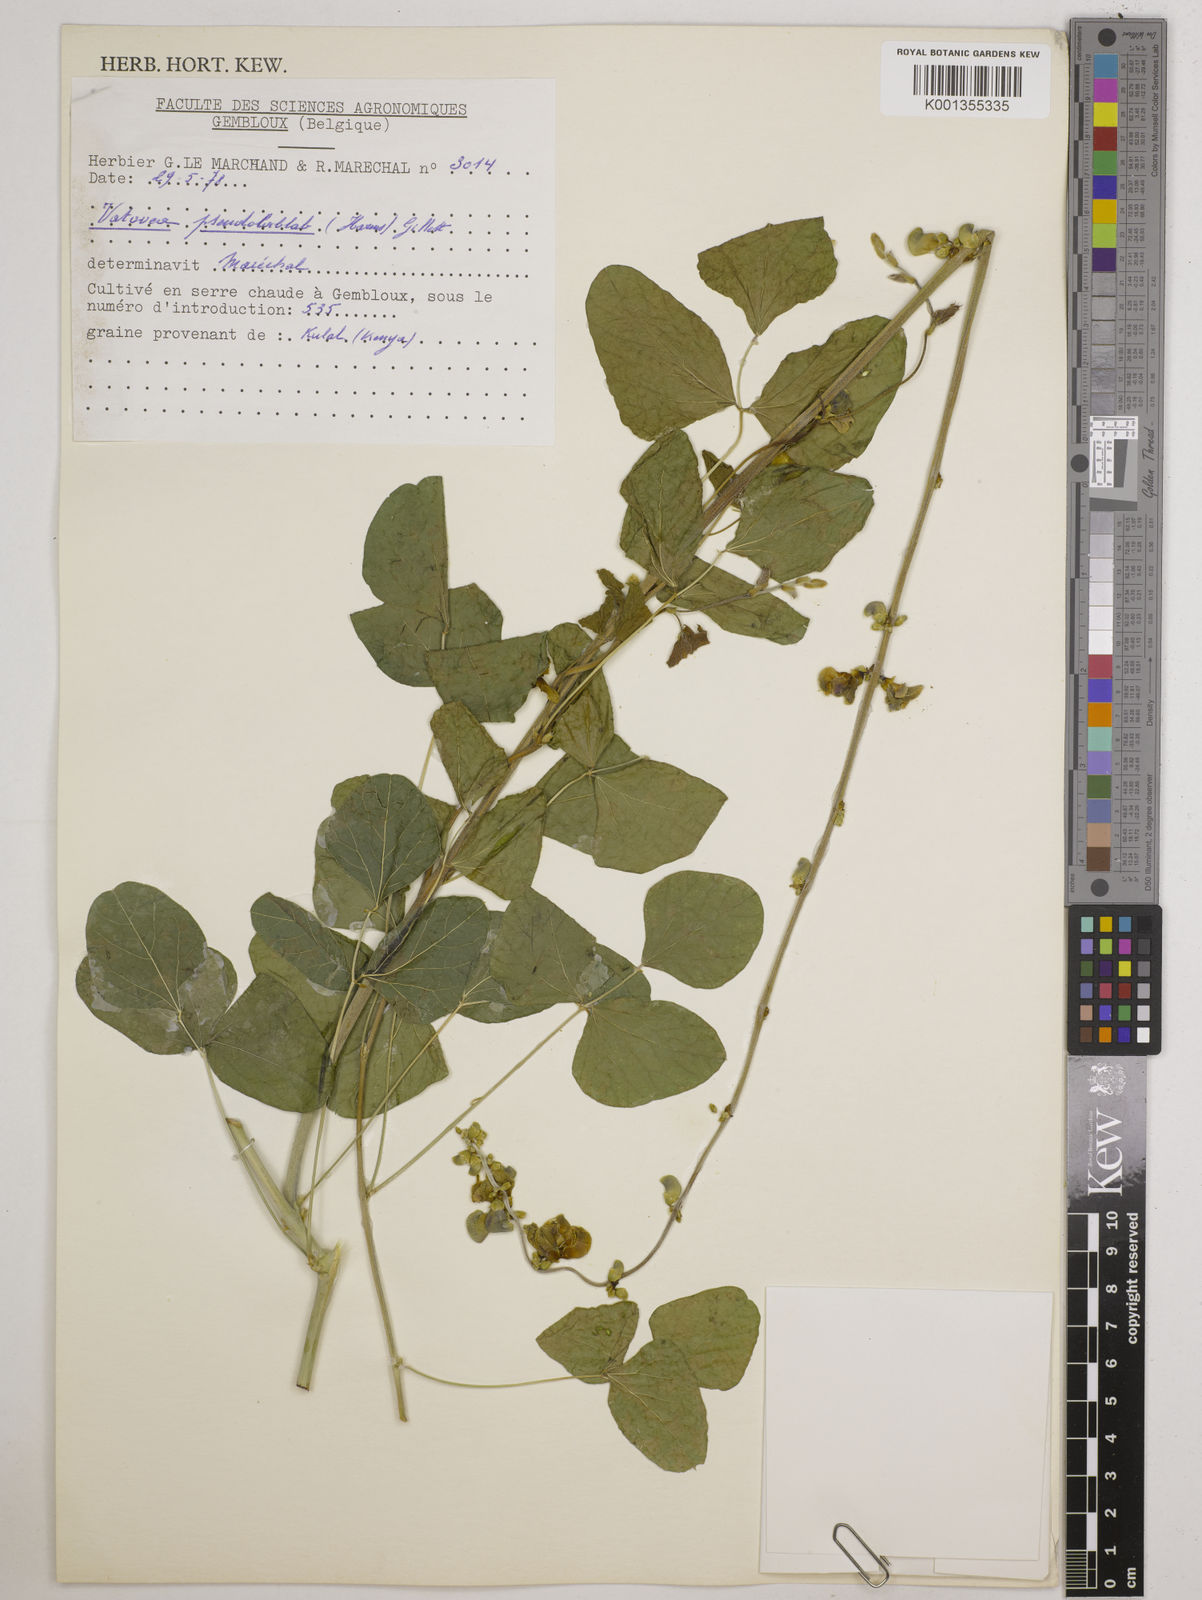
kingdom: Plantae
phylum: Tracheophyta
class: Magnoliopsida
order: Fabales
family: Fabaceae
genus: Vatovaea
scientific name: Vatovaea pseudolablab
